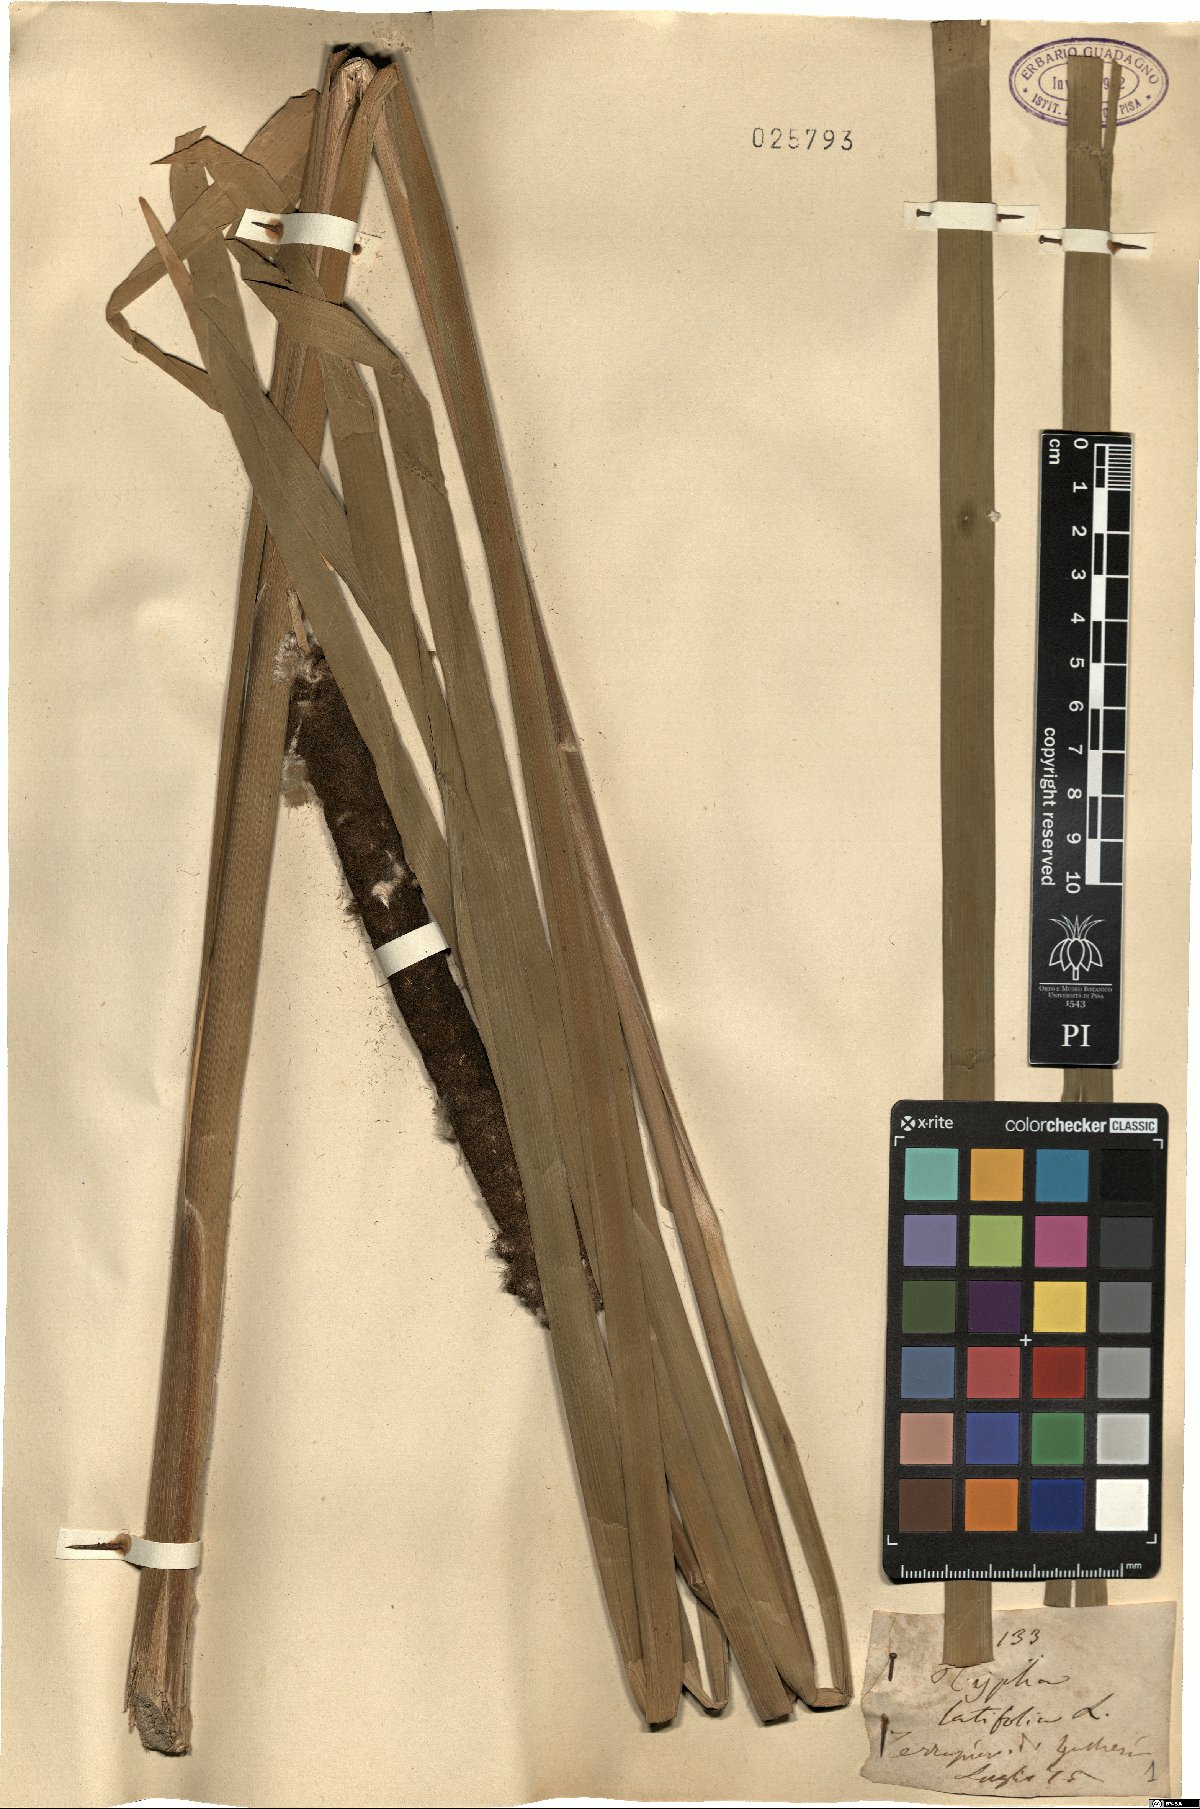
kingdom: Plantae
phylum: Tracheophyta
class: Liliopsida
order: Poales
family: Typhaceae
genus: Typha
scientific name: Typha latifolia
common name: Broadleaf cattail
